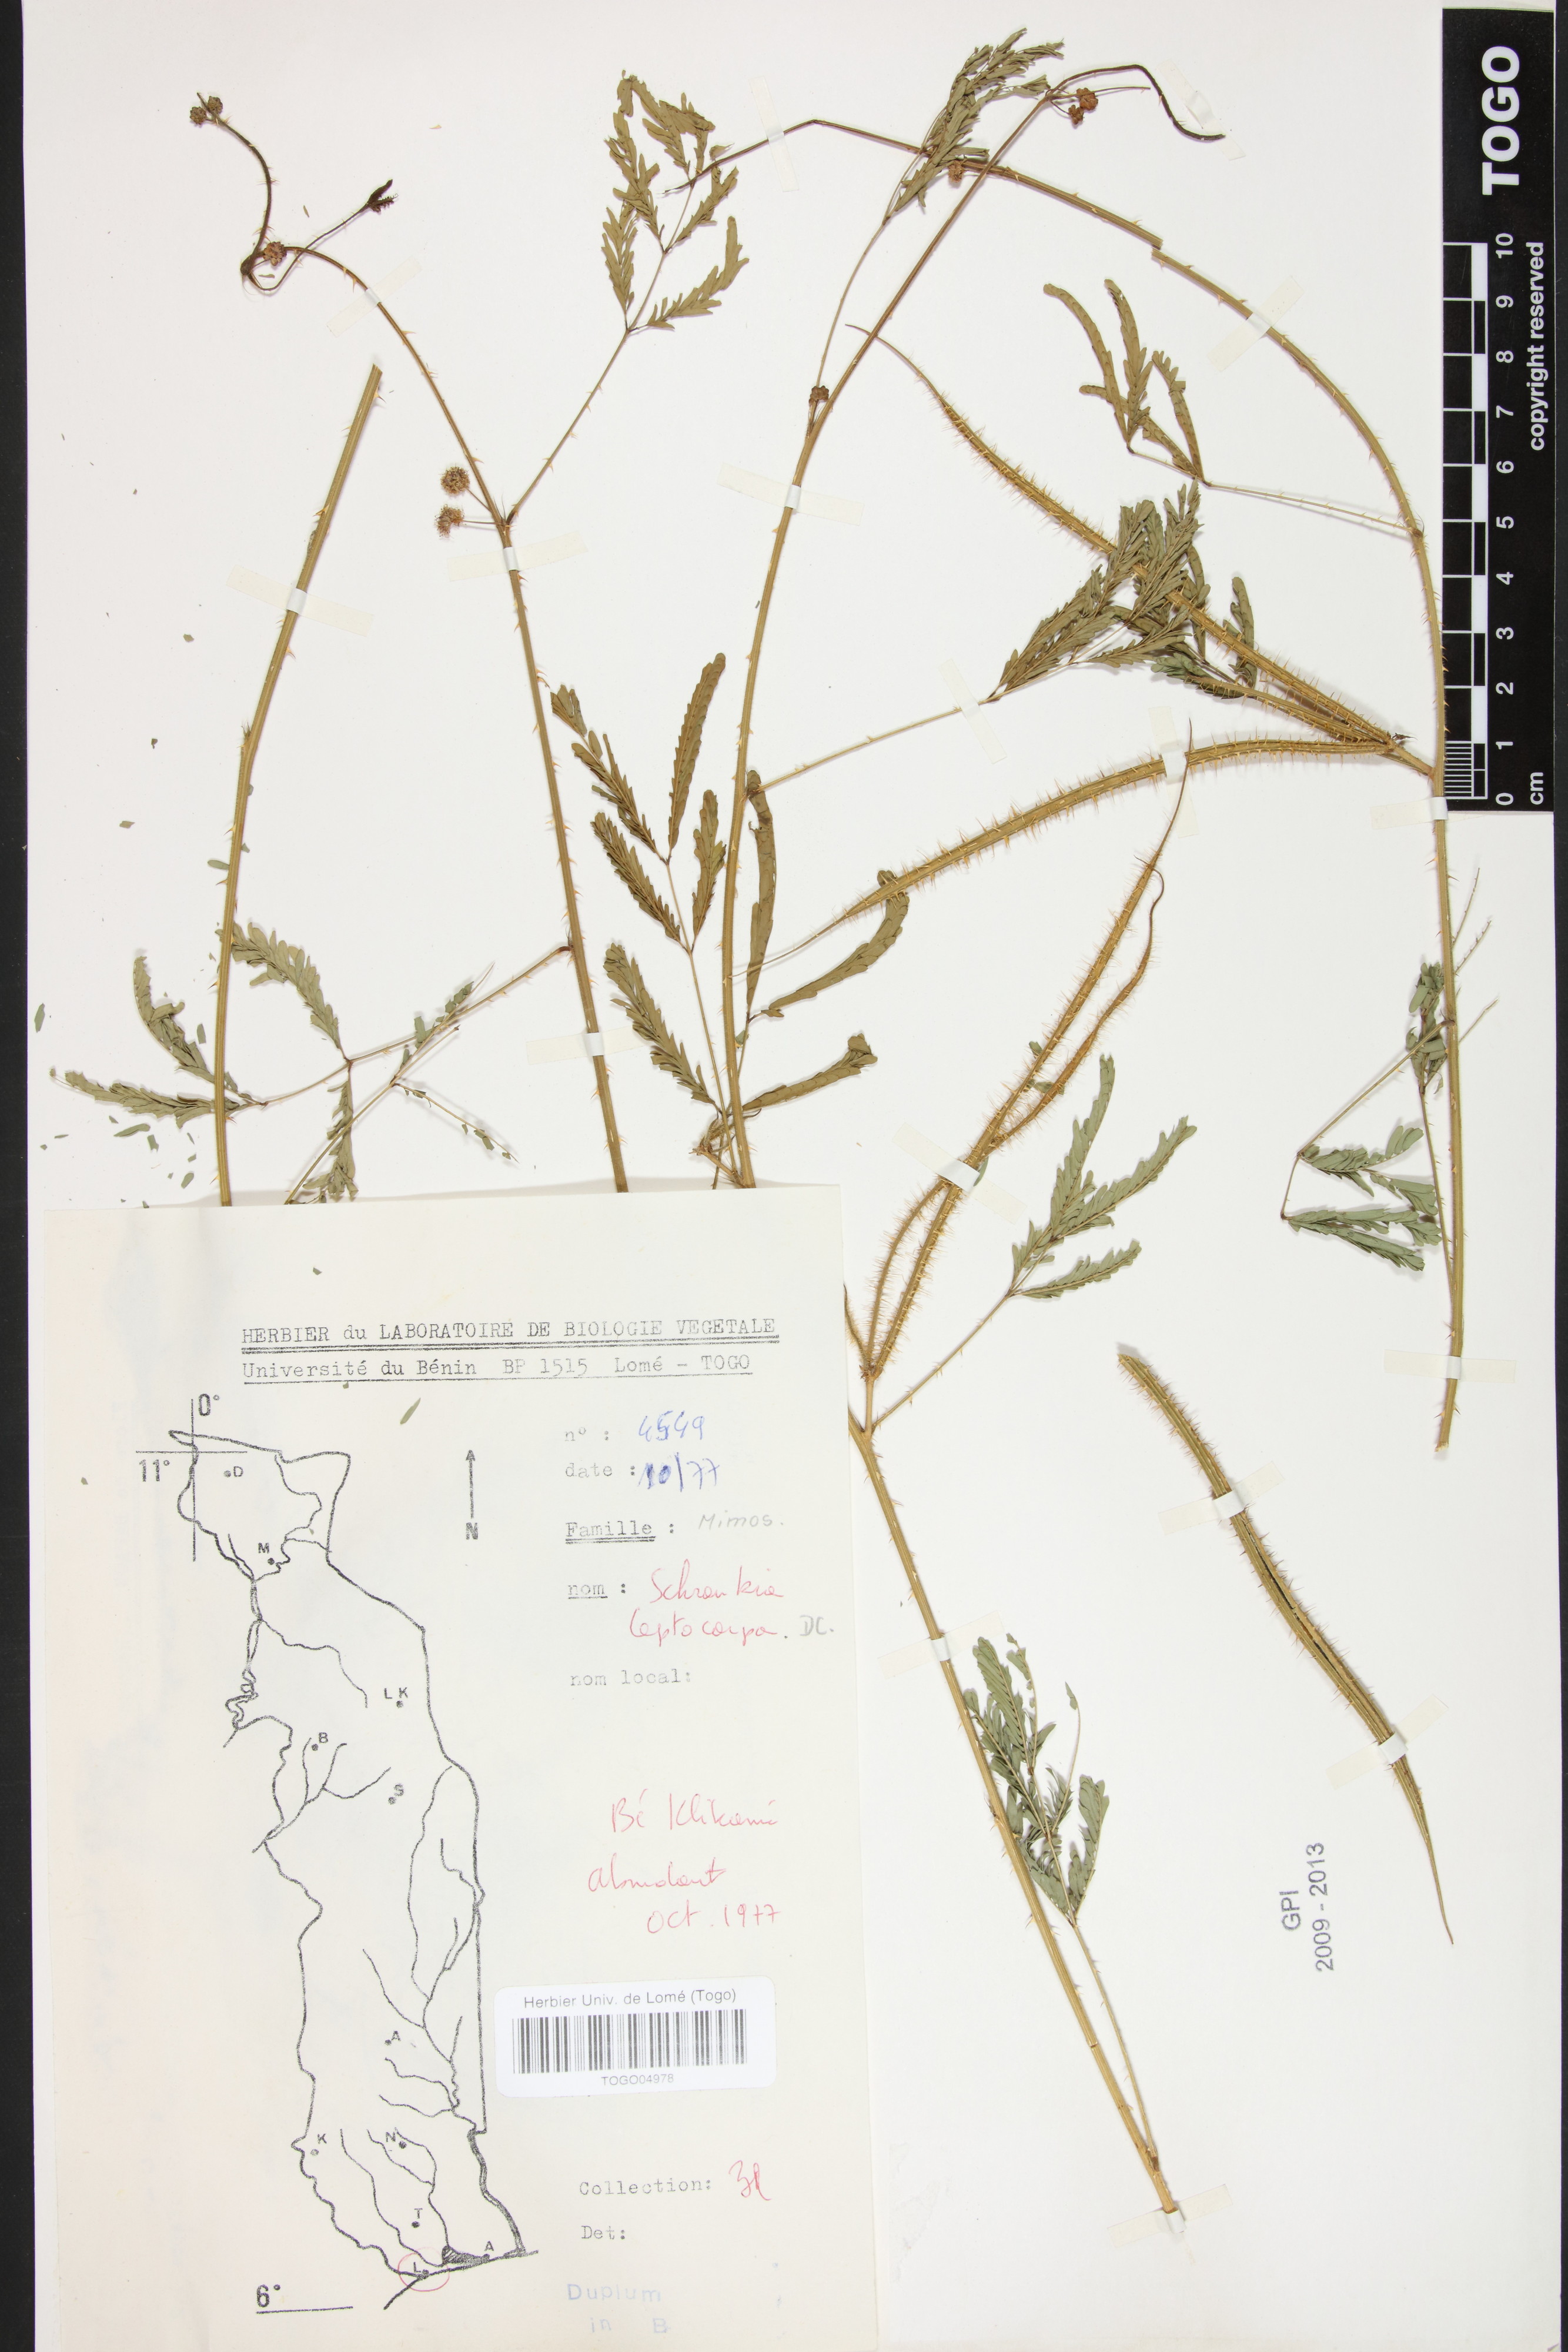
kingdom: Plantae
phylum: Tracheophyta
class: Magnoliopsida
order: Fabales
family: Fabaceae
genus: Mimosa
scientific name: Mimosa candollei
